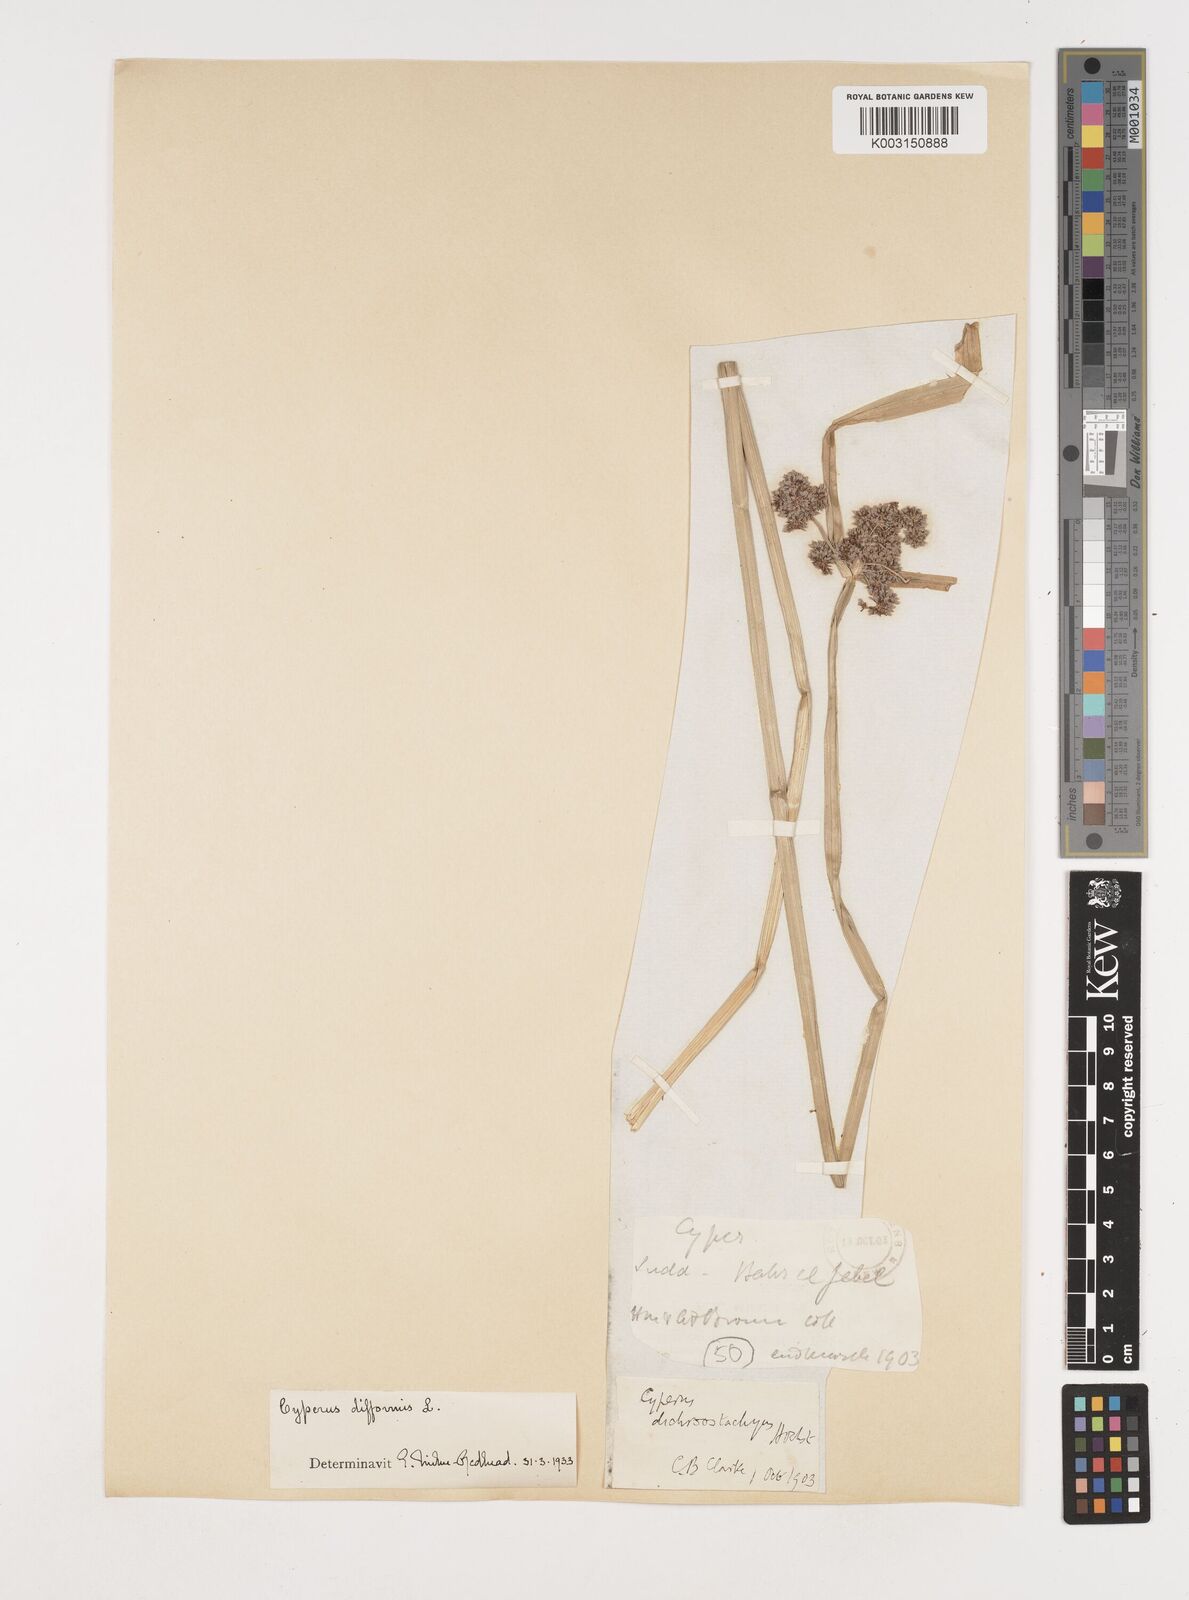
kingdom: Plantae
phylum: Tracheophyta
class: Liliopsida
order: Poales
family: Cyperaceae
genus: Cyperus
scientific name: Cyperus difformis
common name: Variable flatsedge
